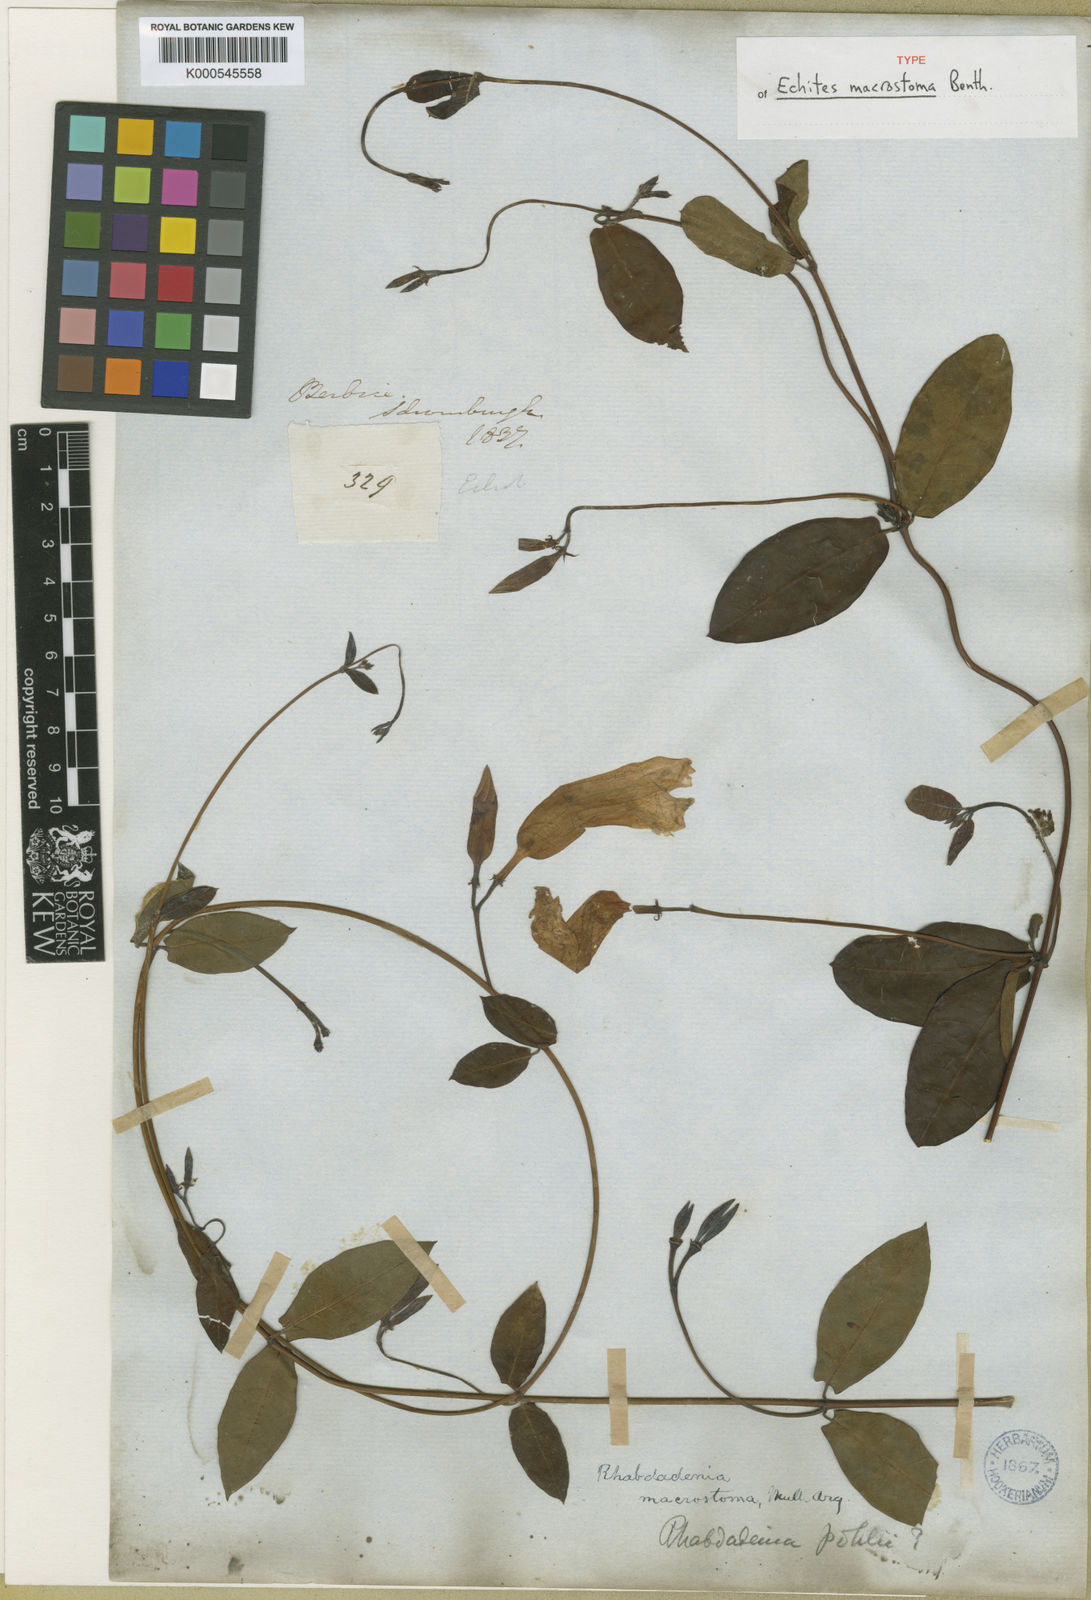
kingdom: Plantae
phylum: Tracheophyta
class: Magnoliopsida
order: Gentianales
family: Apocynaceae
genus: Rhabdadenia
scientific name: Rhabdadenia madida
